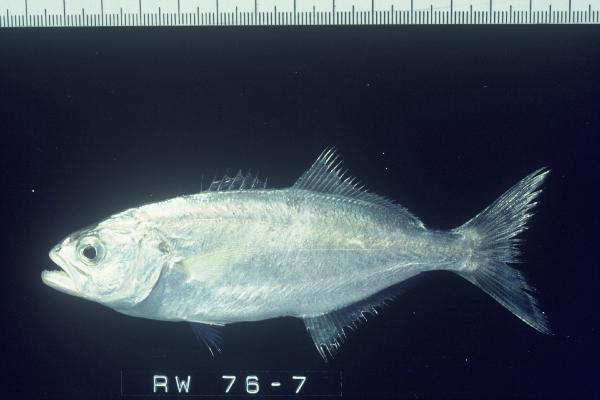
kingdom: Animalia
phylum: Chordata
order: Perciformes
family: Pomatomidae
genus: Pomatomus
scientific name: Pomatomus saltatrix
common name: Bluefish
